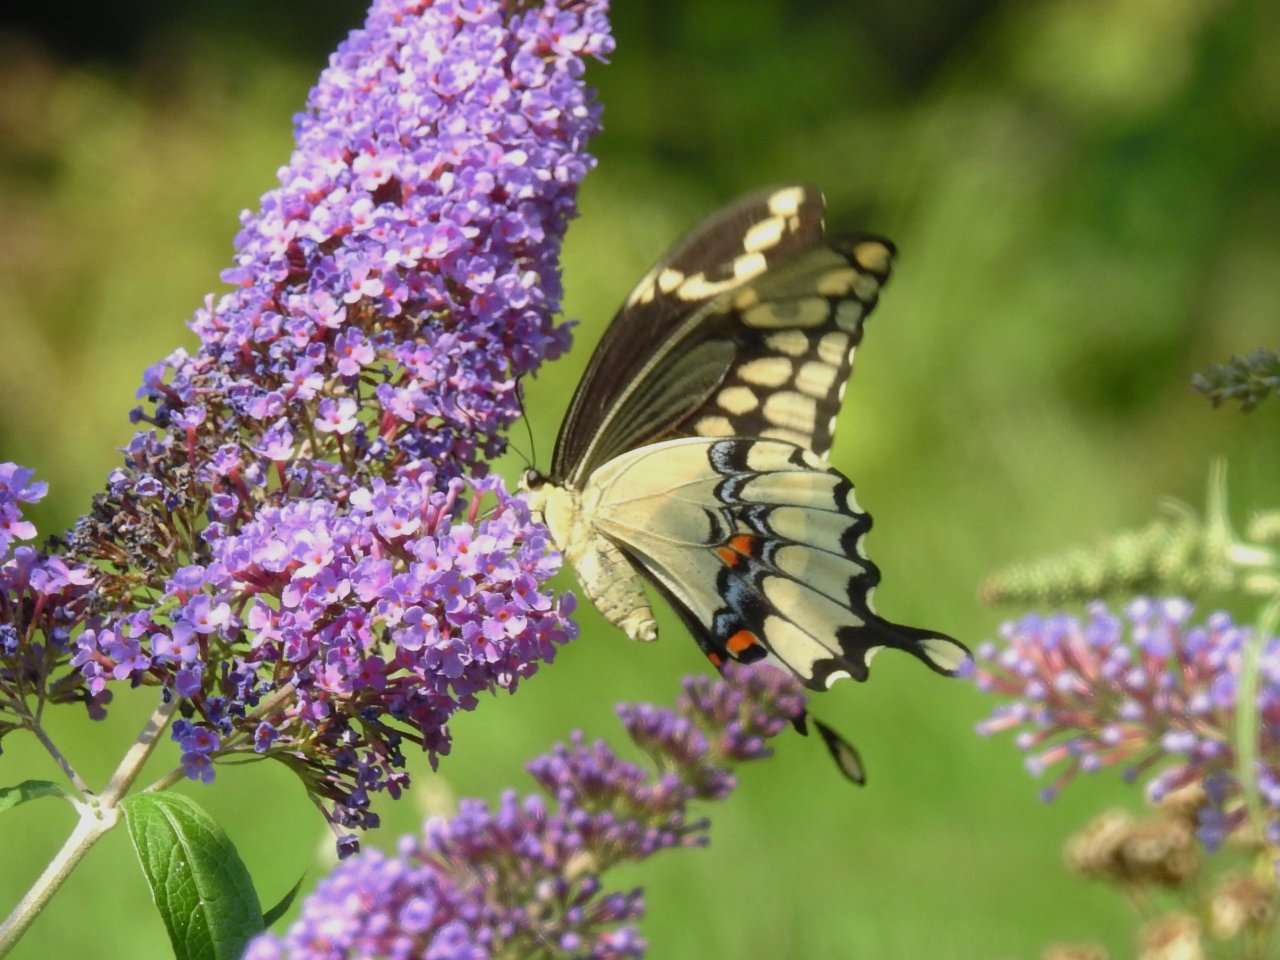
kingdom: Animalia
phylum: Arthropoda
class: Insecta
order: Lepidoptera
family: Papilionidae
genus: Papilio
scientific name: Papilio cresphontes
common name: Eastern Giant Swallowtail
